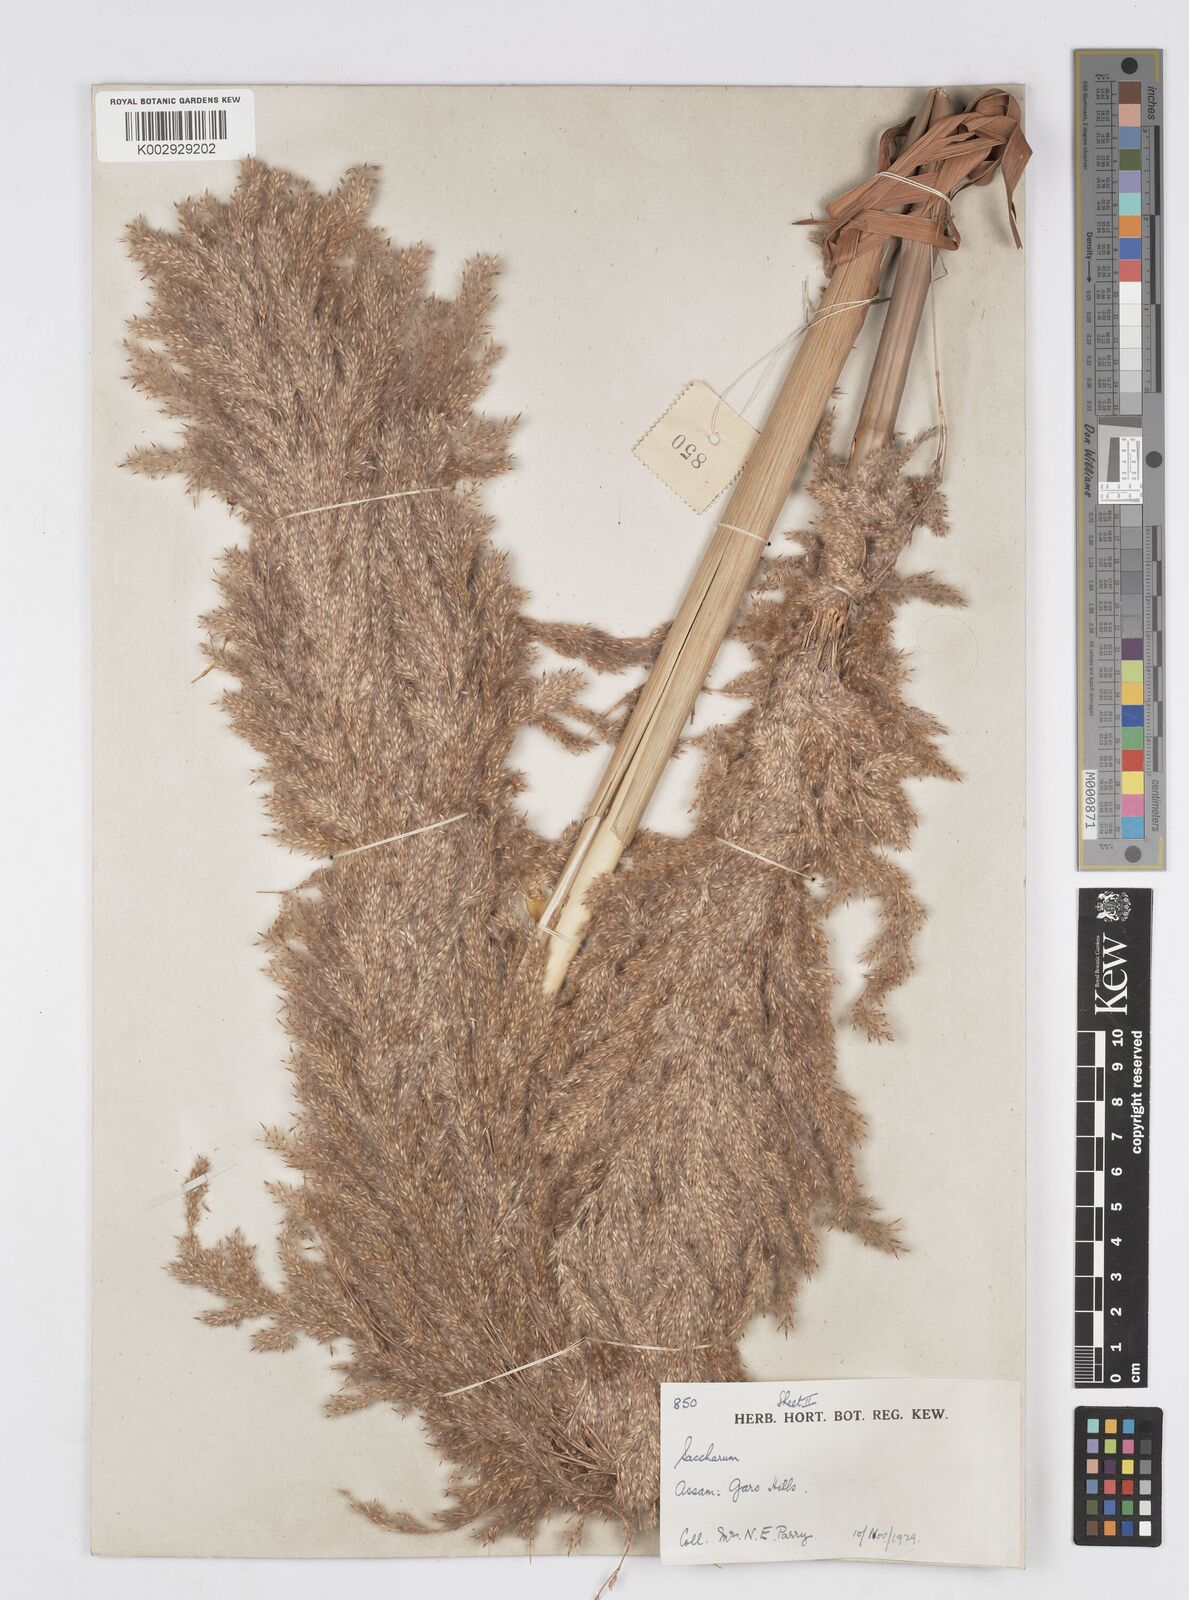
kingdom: Plantae
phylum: Tracheophyta
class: Liliopsida
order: Poales
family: Poaceae
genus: Tripidium
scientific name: Tripidium ravennae
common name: Ravenna grass
